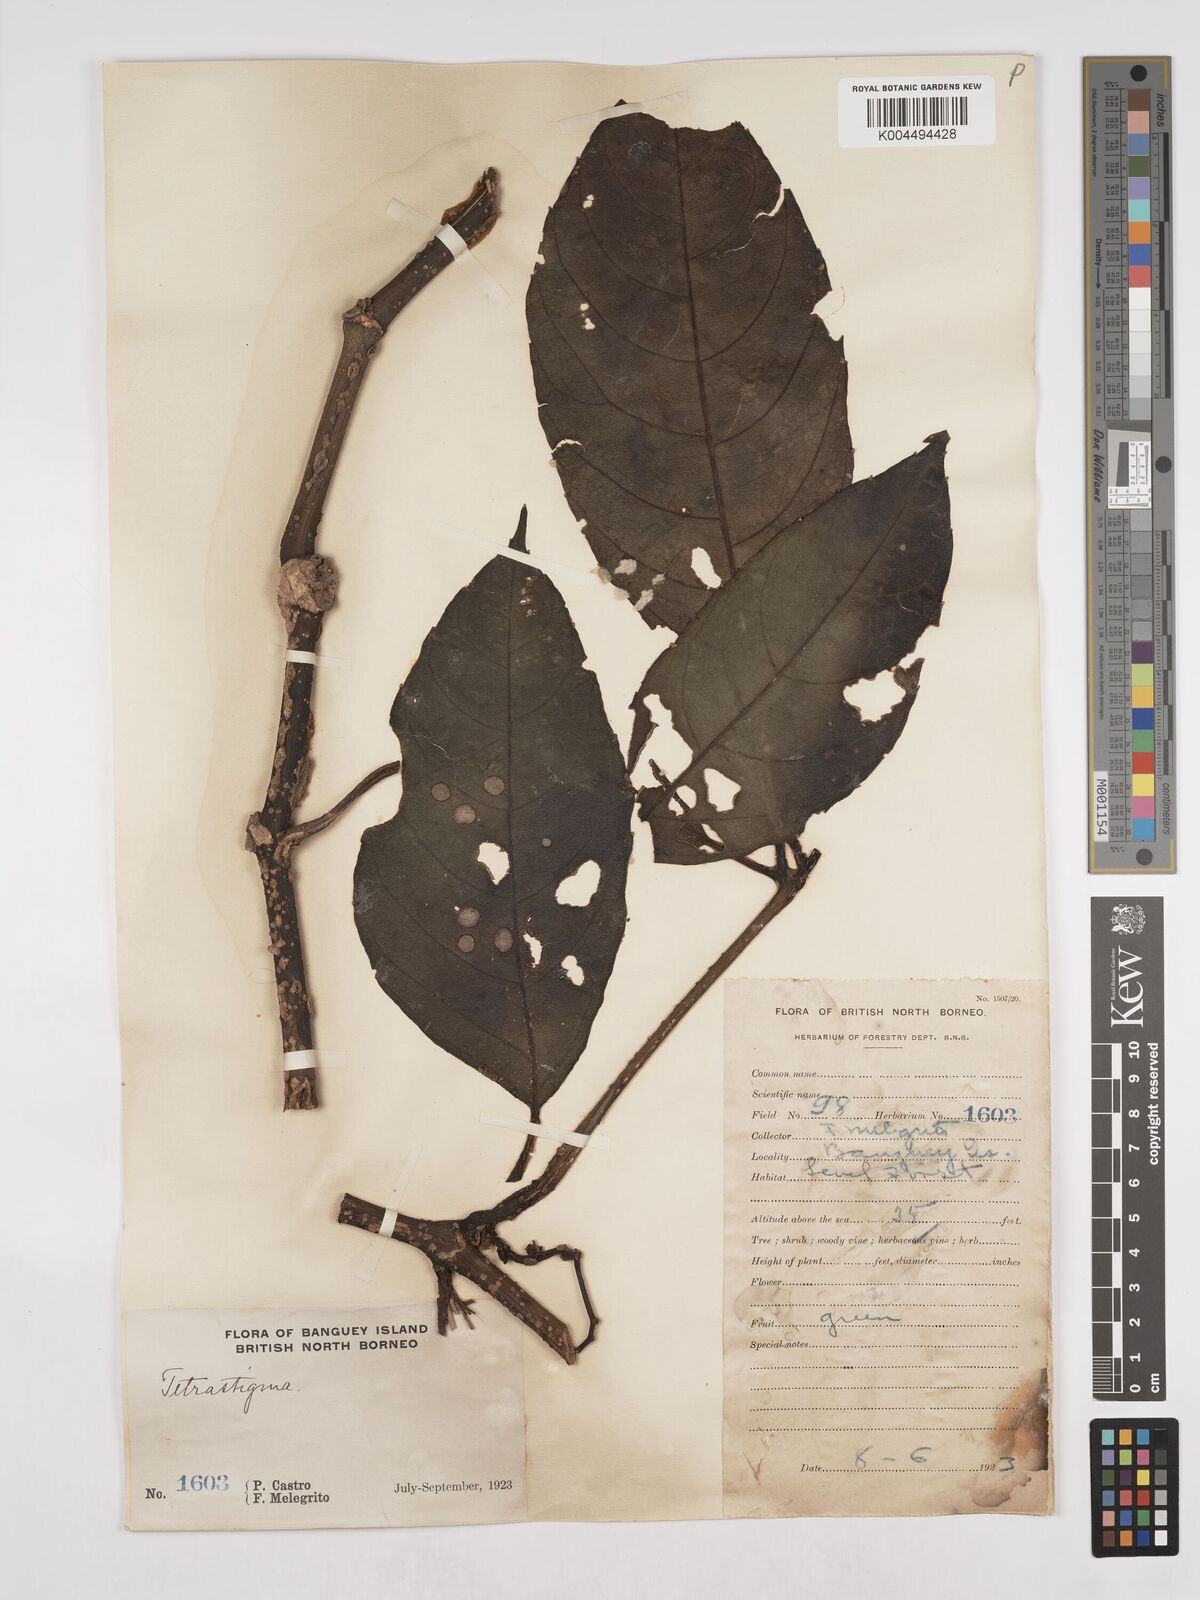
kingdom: Plantae
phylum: Tracheophyta
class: Magnoliopsida
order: Vitales
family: Vitaceae
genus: Tetrastigma
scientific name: Tetrastigma
